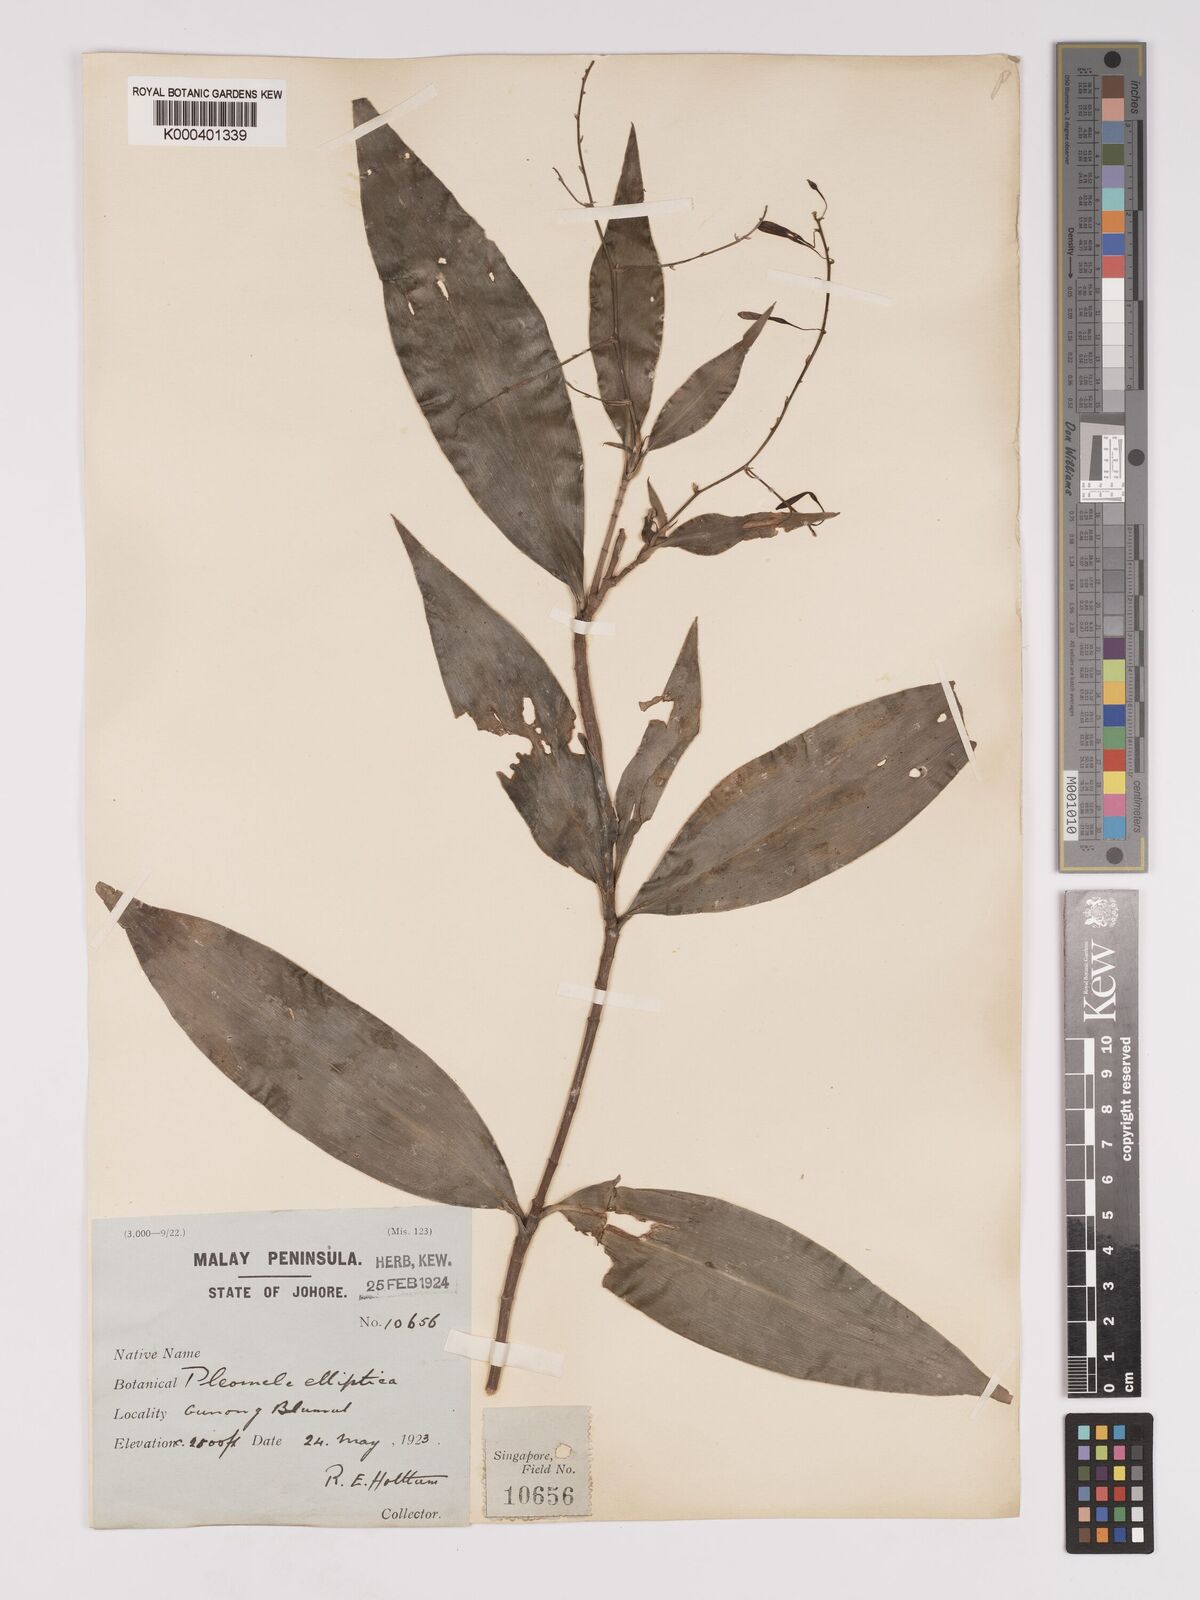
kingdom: Plantae
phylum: Tracheophyta
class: Liliopsida
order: Asparagales
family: Asparagaceae
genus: Dracaena
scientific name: Dracaena elliptica
